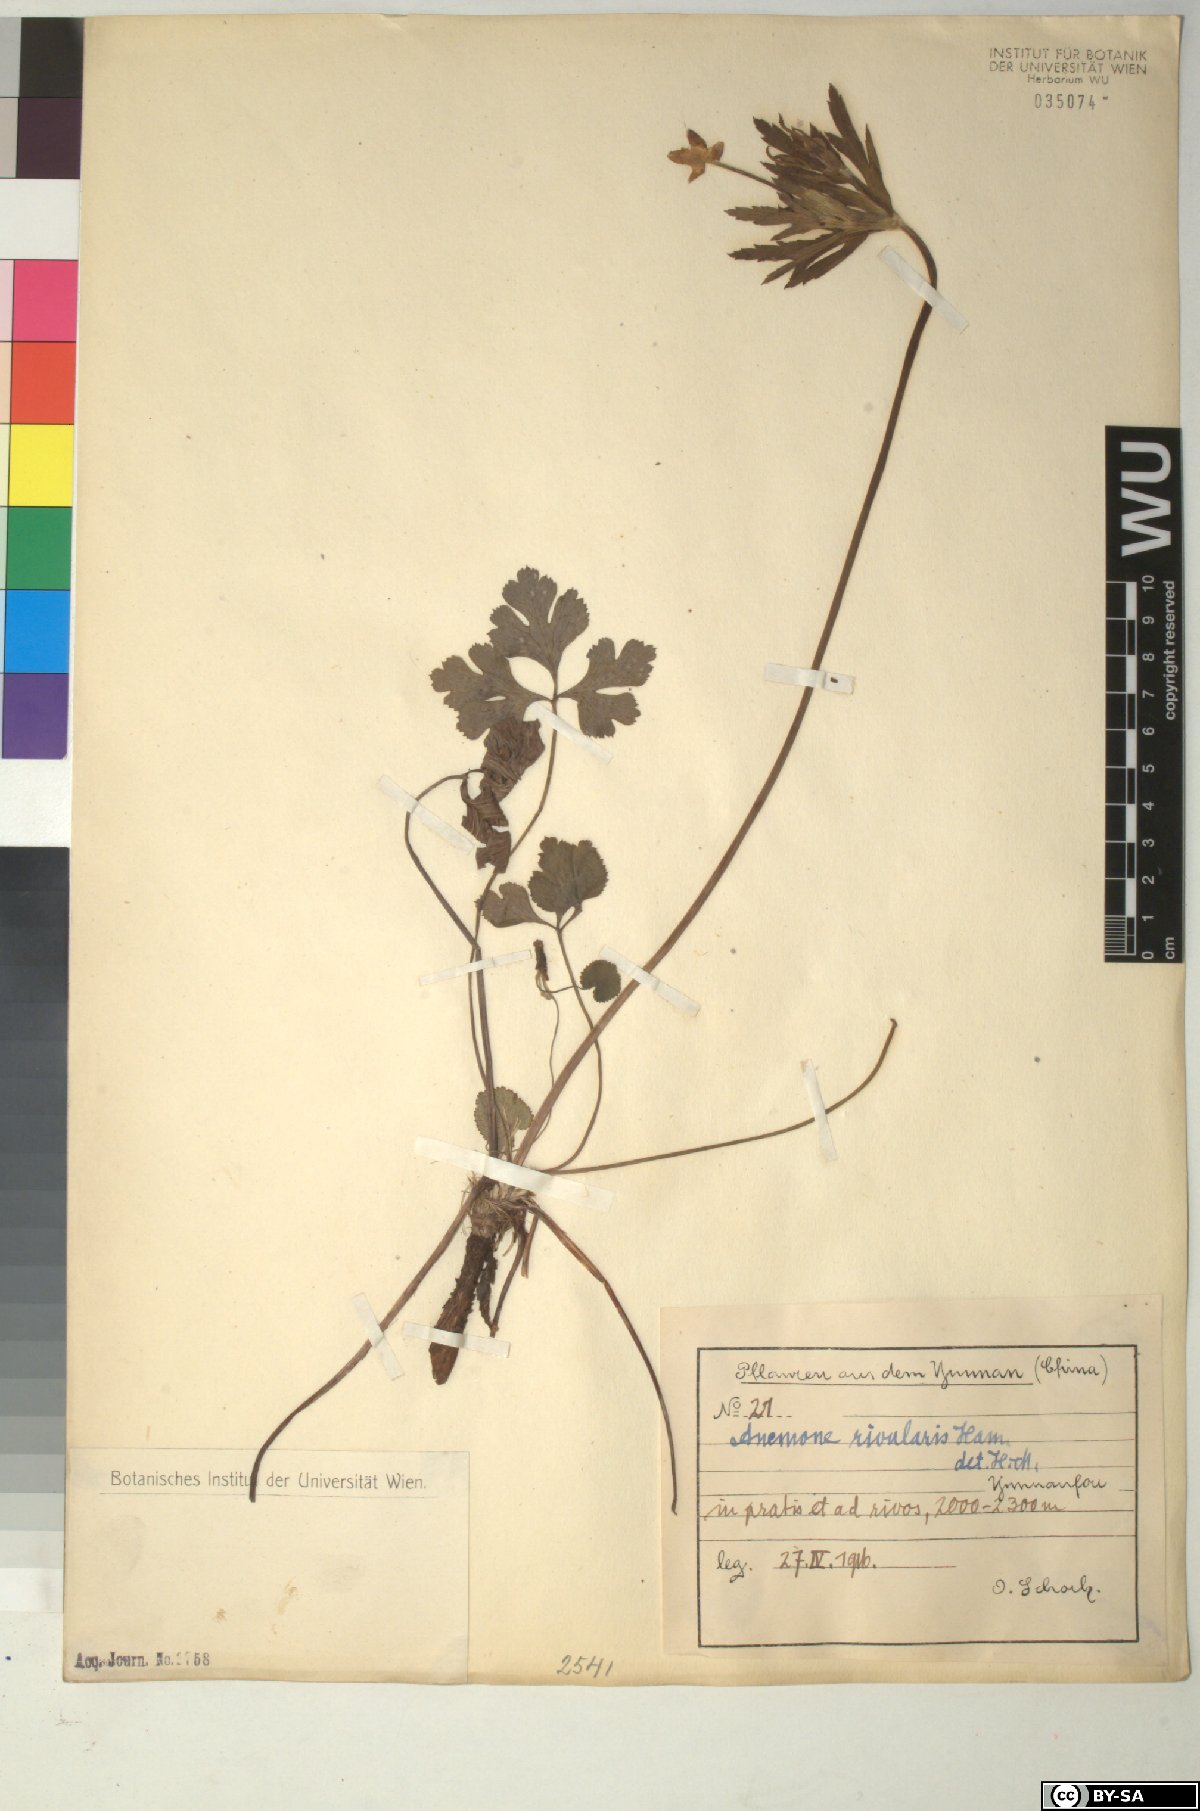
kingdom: Plantae
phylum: Tracheophyta
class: Magnoliopsida
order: Ranunculales
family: Ranunculaceae
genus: Eriocapitella
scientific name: Eriocapitella rivularis
